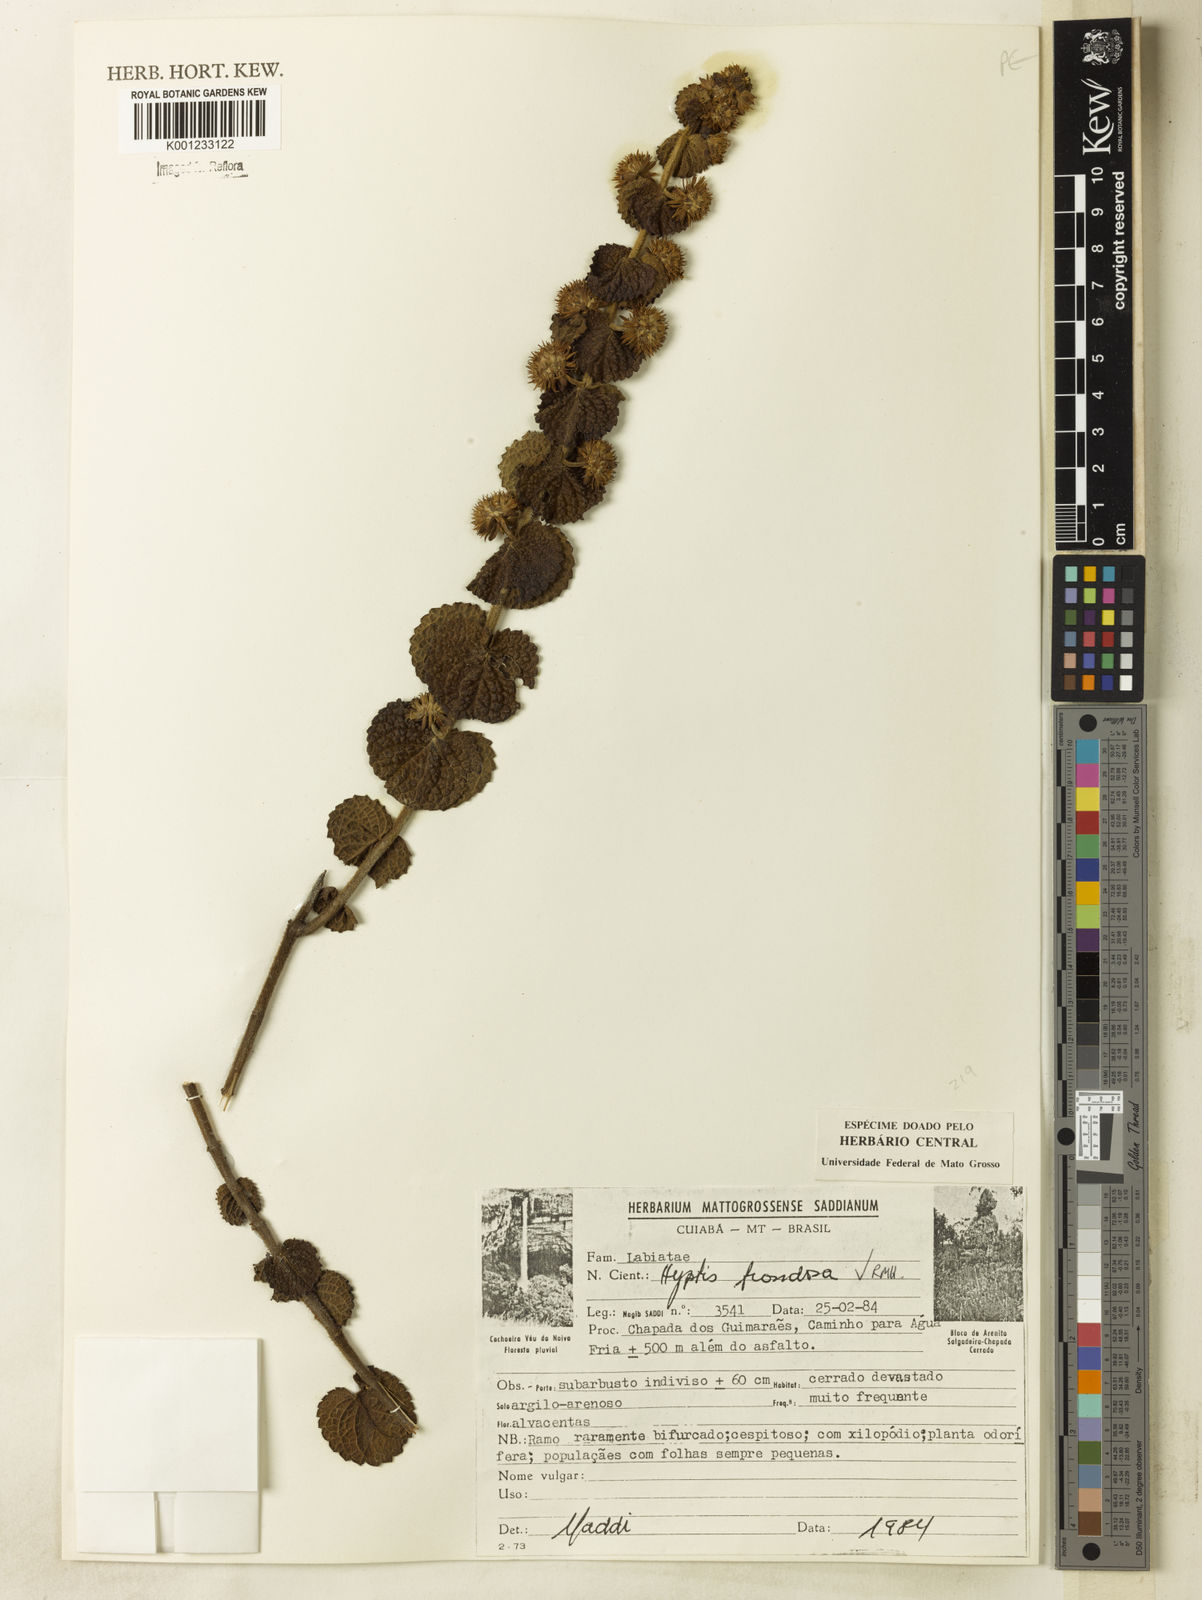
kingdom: Plantae
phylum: Tracheophyta
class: Magnoliopsida
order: Lamiales
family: Lamiaceae
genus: Hyptis
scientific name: Hyptis frondosa
